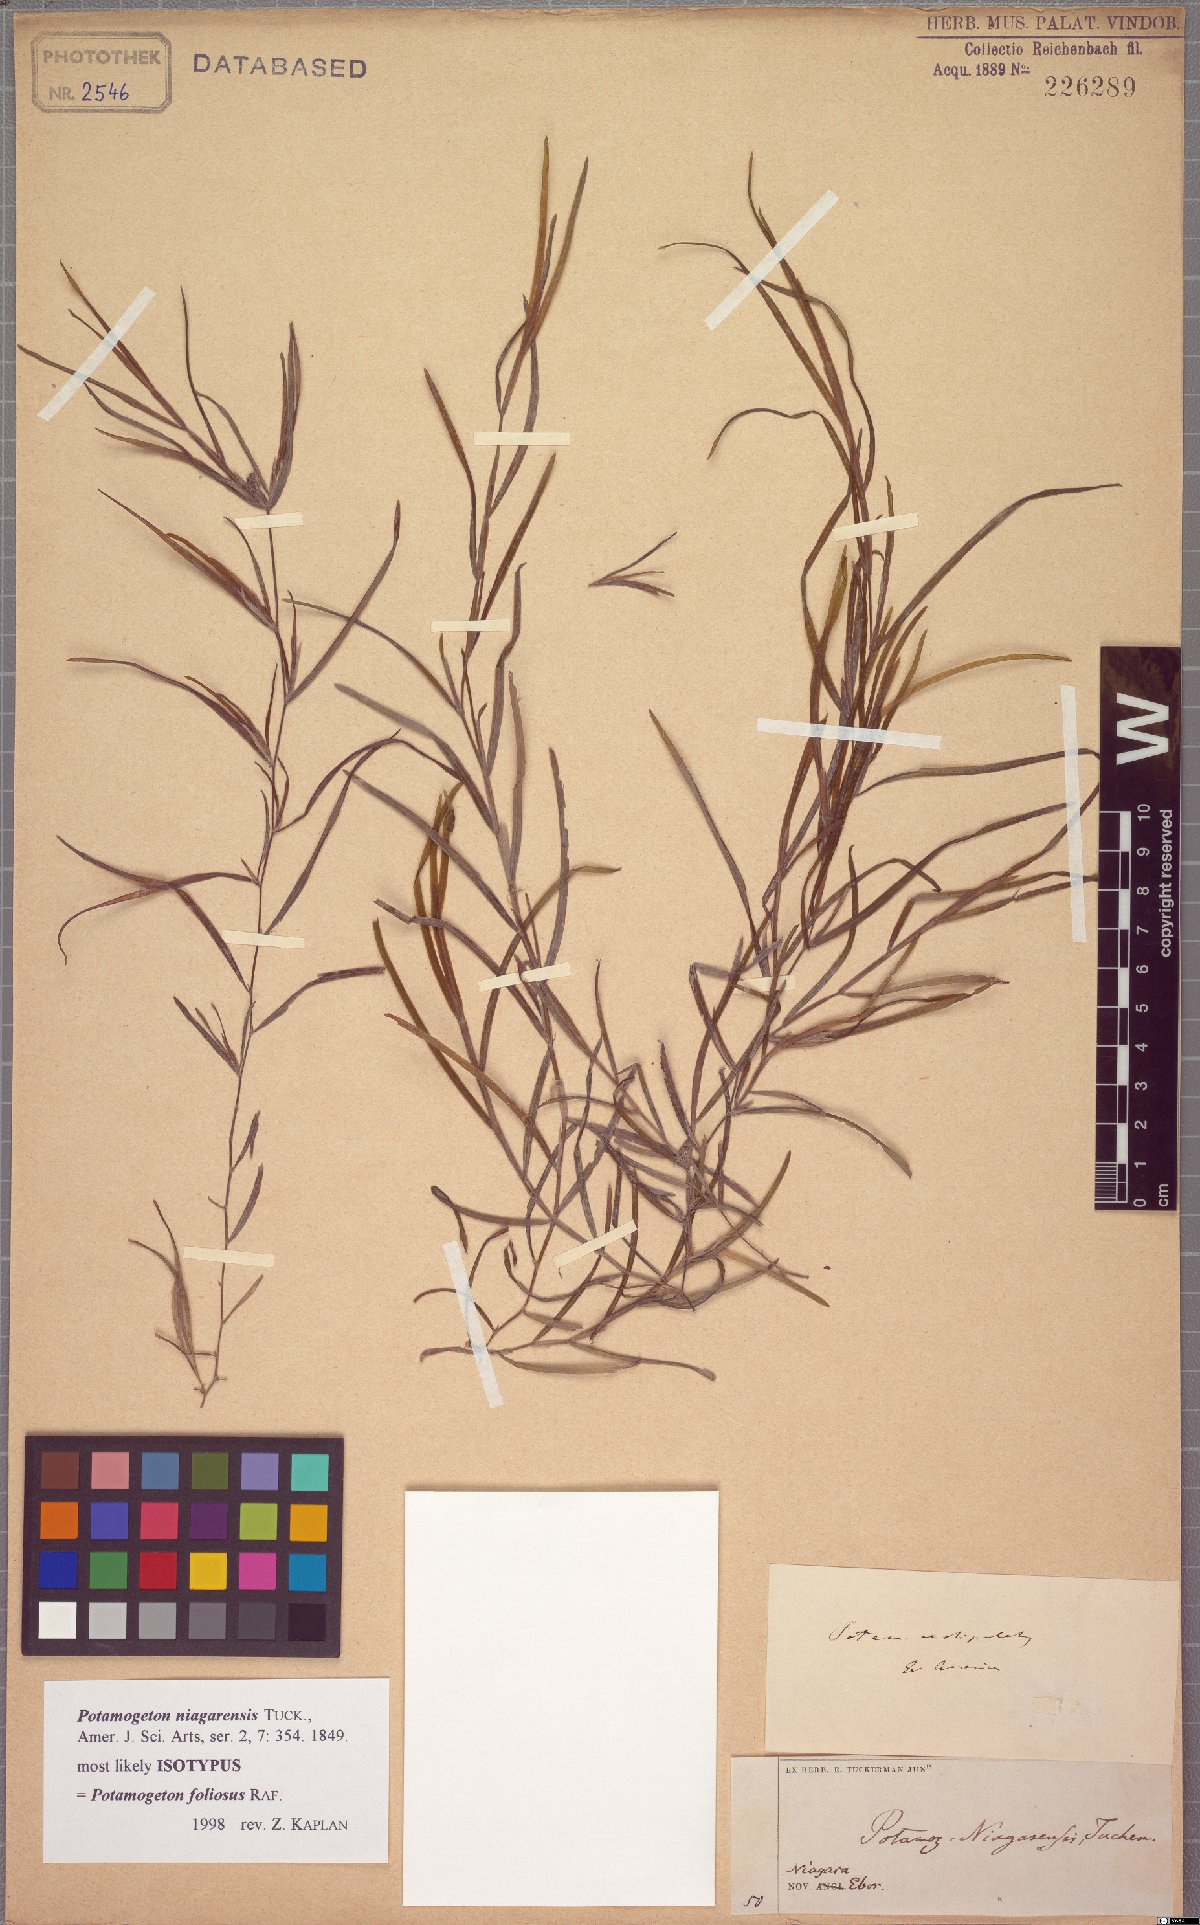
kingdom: Plantae
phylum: Tracheophyta
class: Liliopsida
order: Alismatales
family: Potamogetonaceae
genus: Potamogeton
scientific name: Potamogeton foliosus
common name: Leafy pondweed
